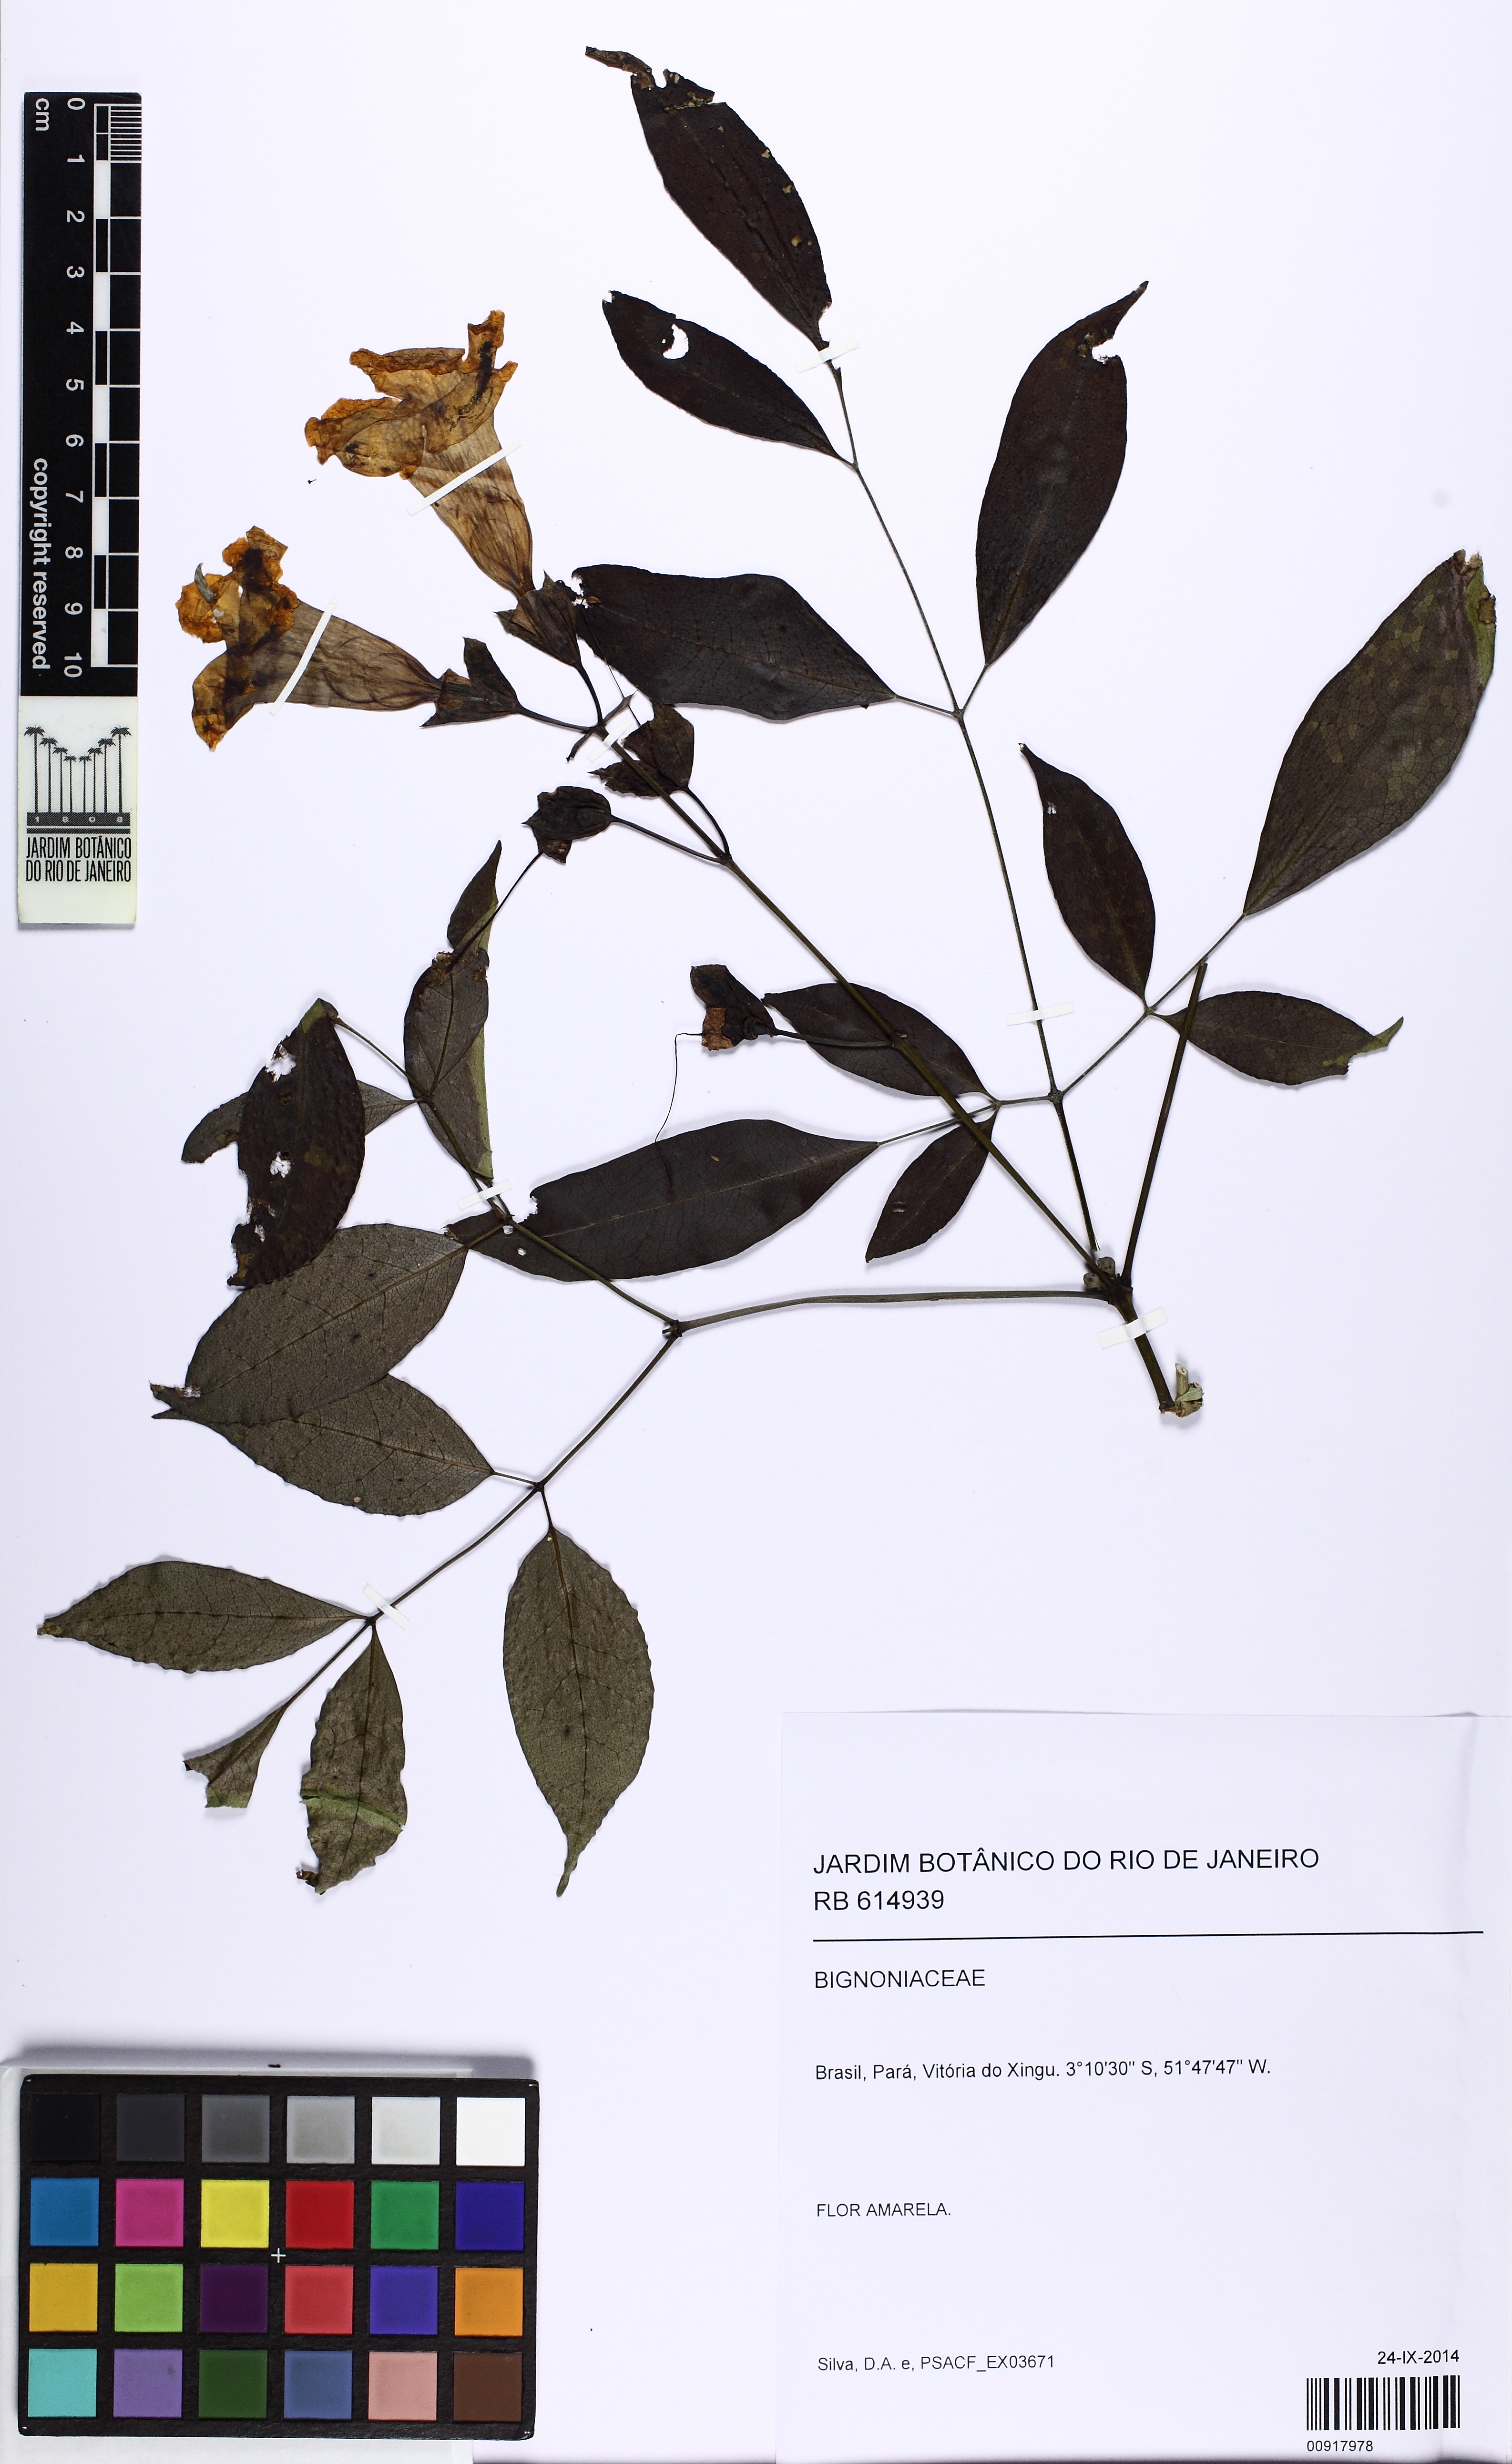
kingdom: Plantae
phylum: Tracheophyta
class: Magnoliopsida
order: Lamiales
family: Bignoniaceae
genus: Adenocalymma
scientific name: Adenocalymma
